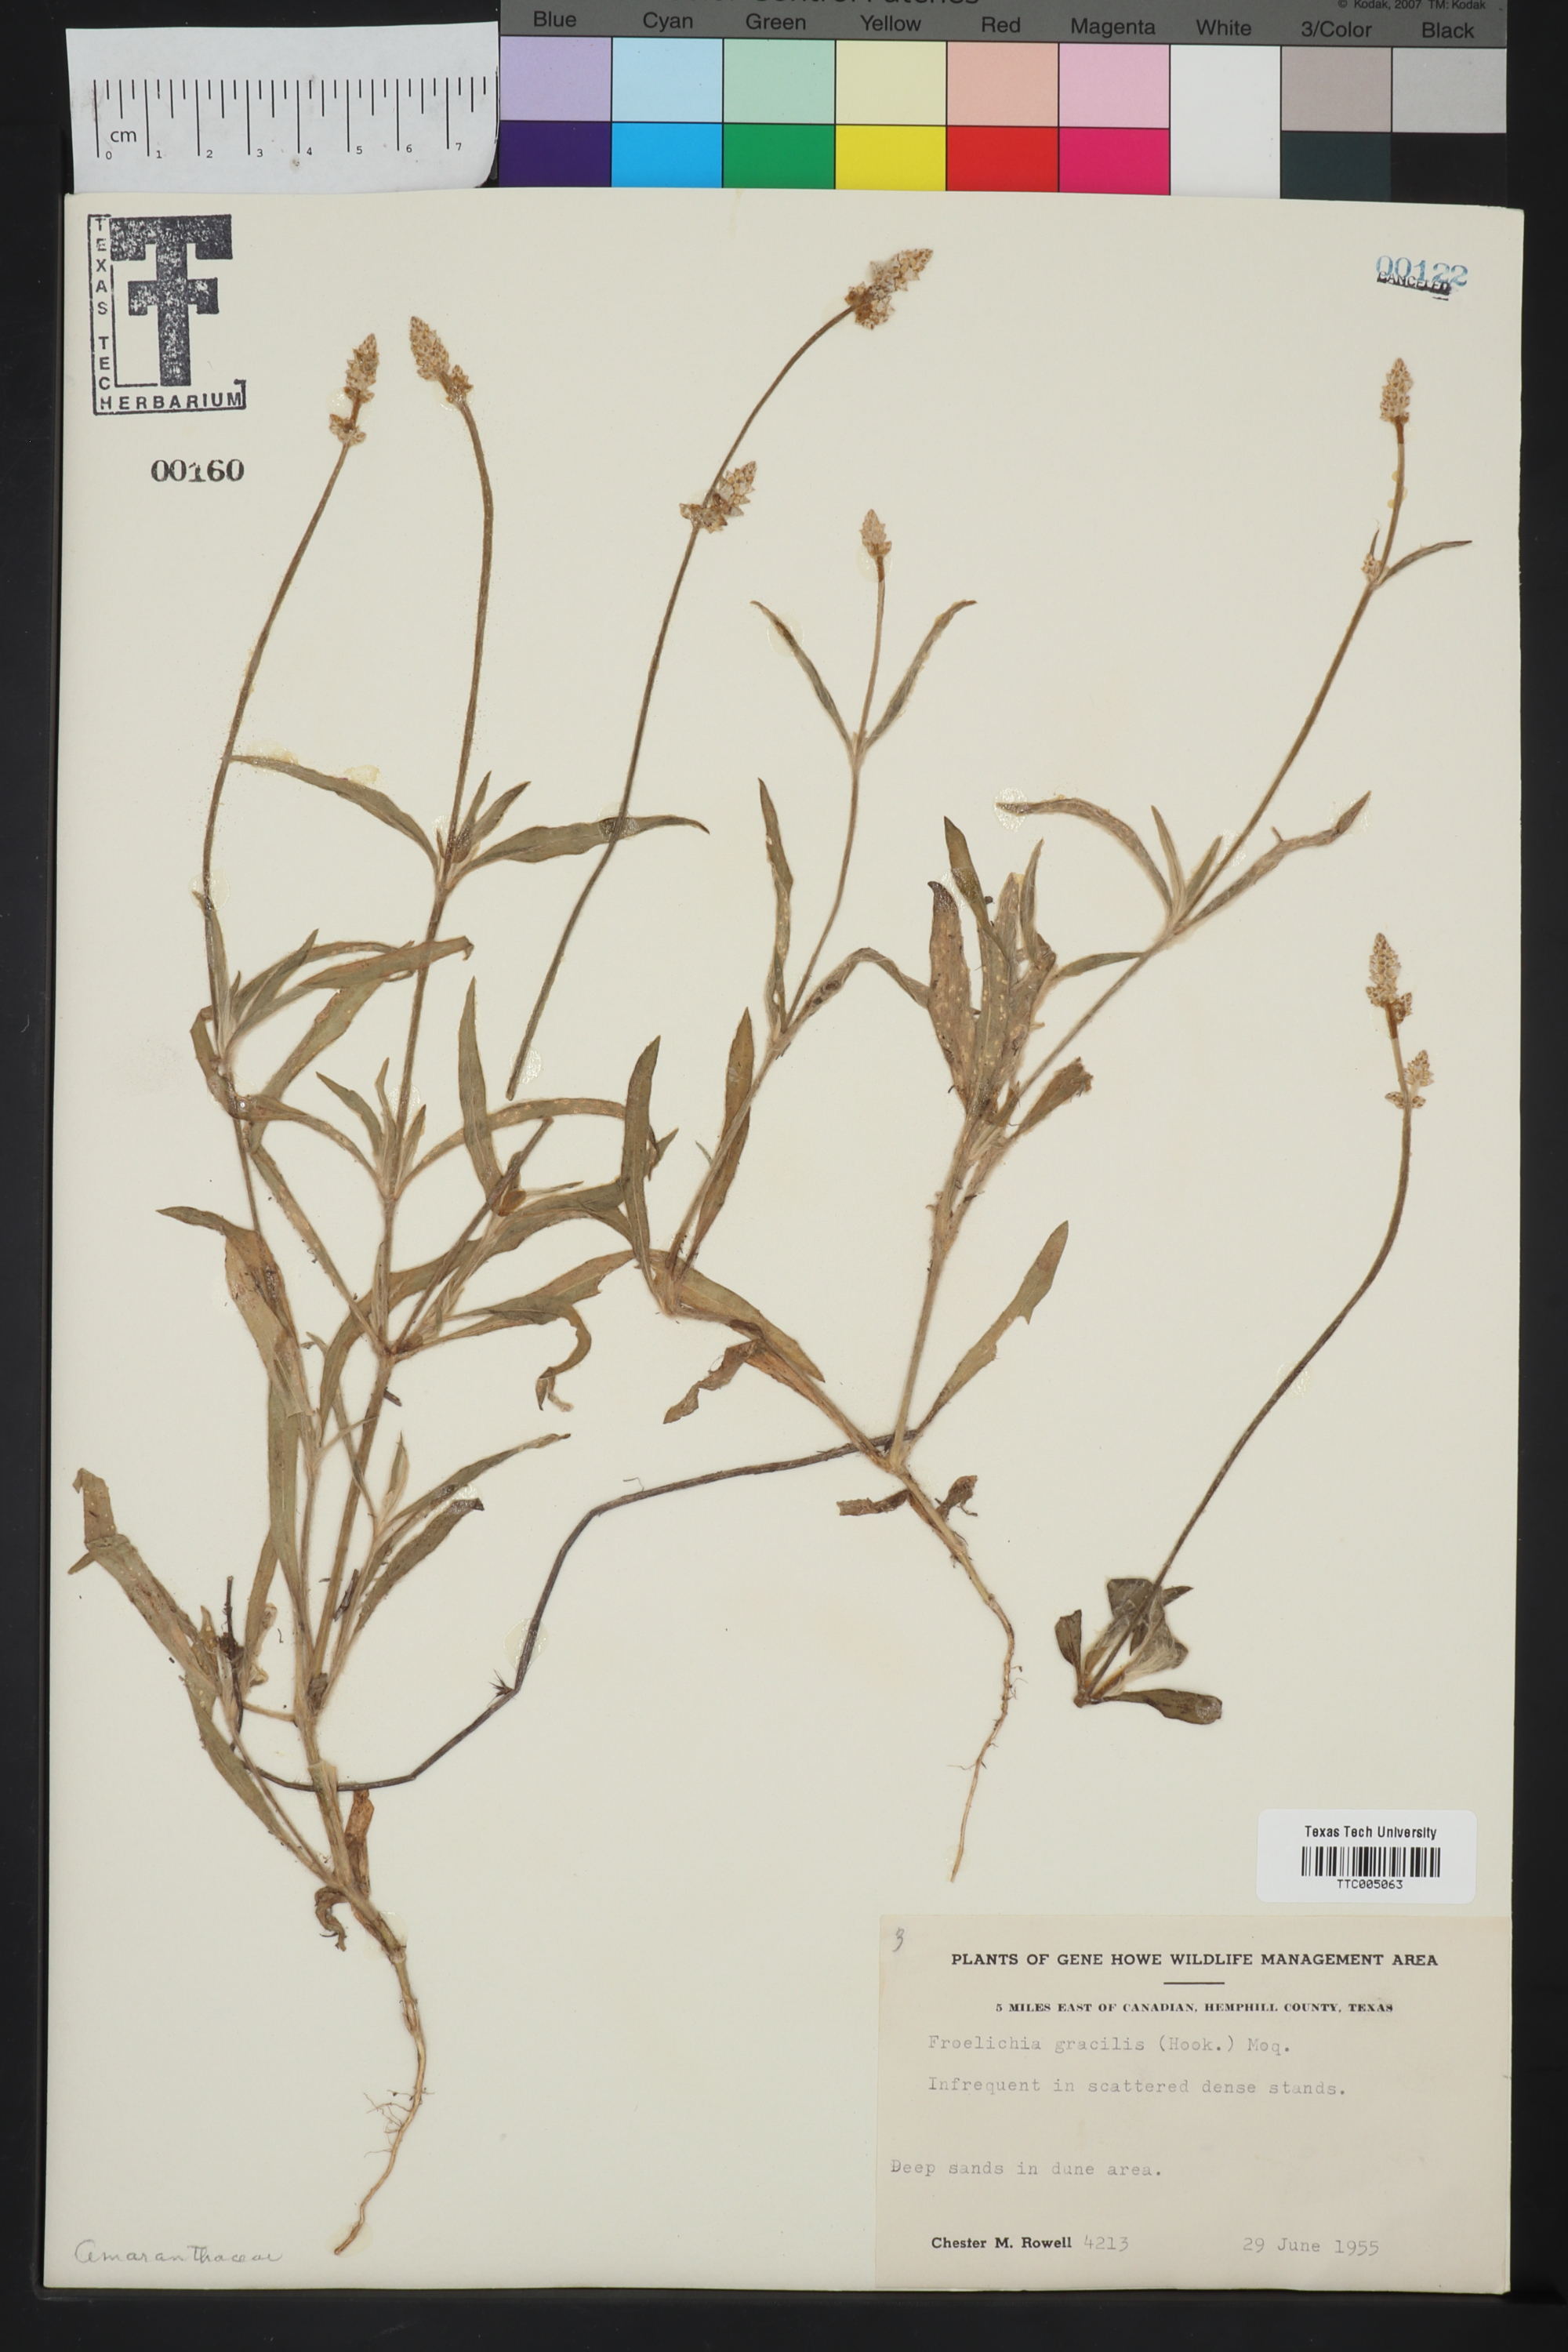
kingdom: Plantae
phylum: Tracheophyta
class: Magnoliopsida
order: Caryophyllales
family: Amaranthaceae
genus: Froelichia
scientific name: Froelichia gracilis
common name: Slender cottonweed
